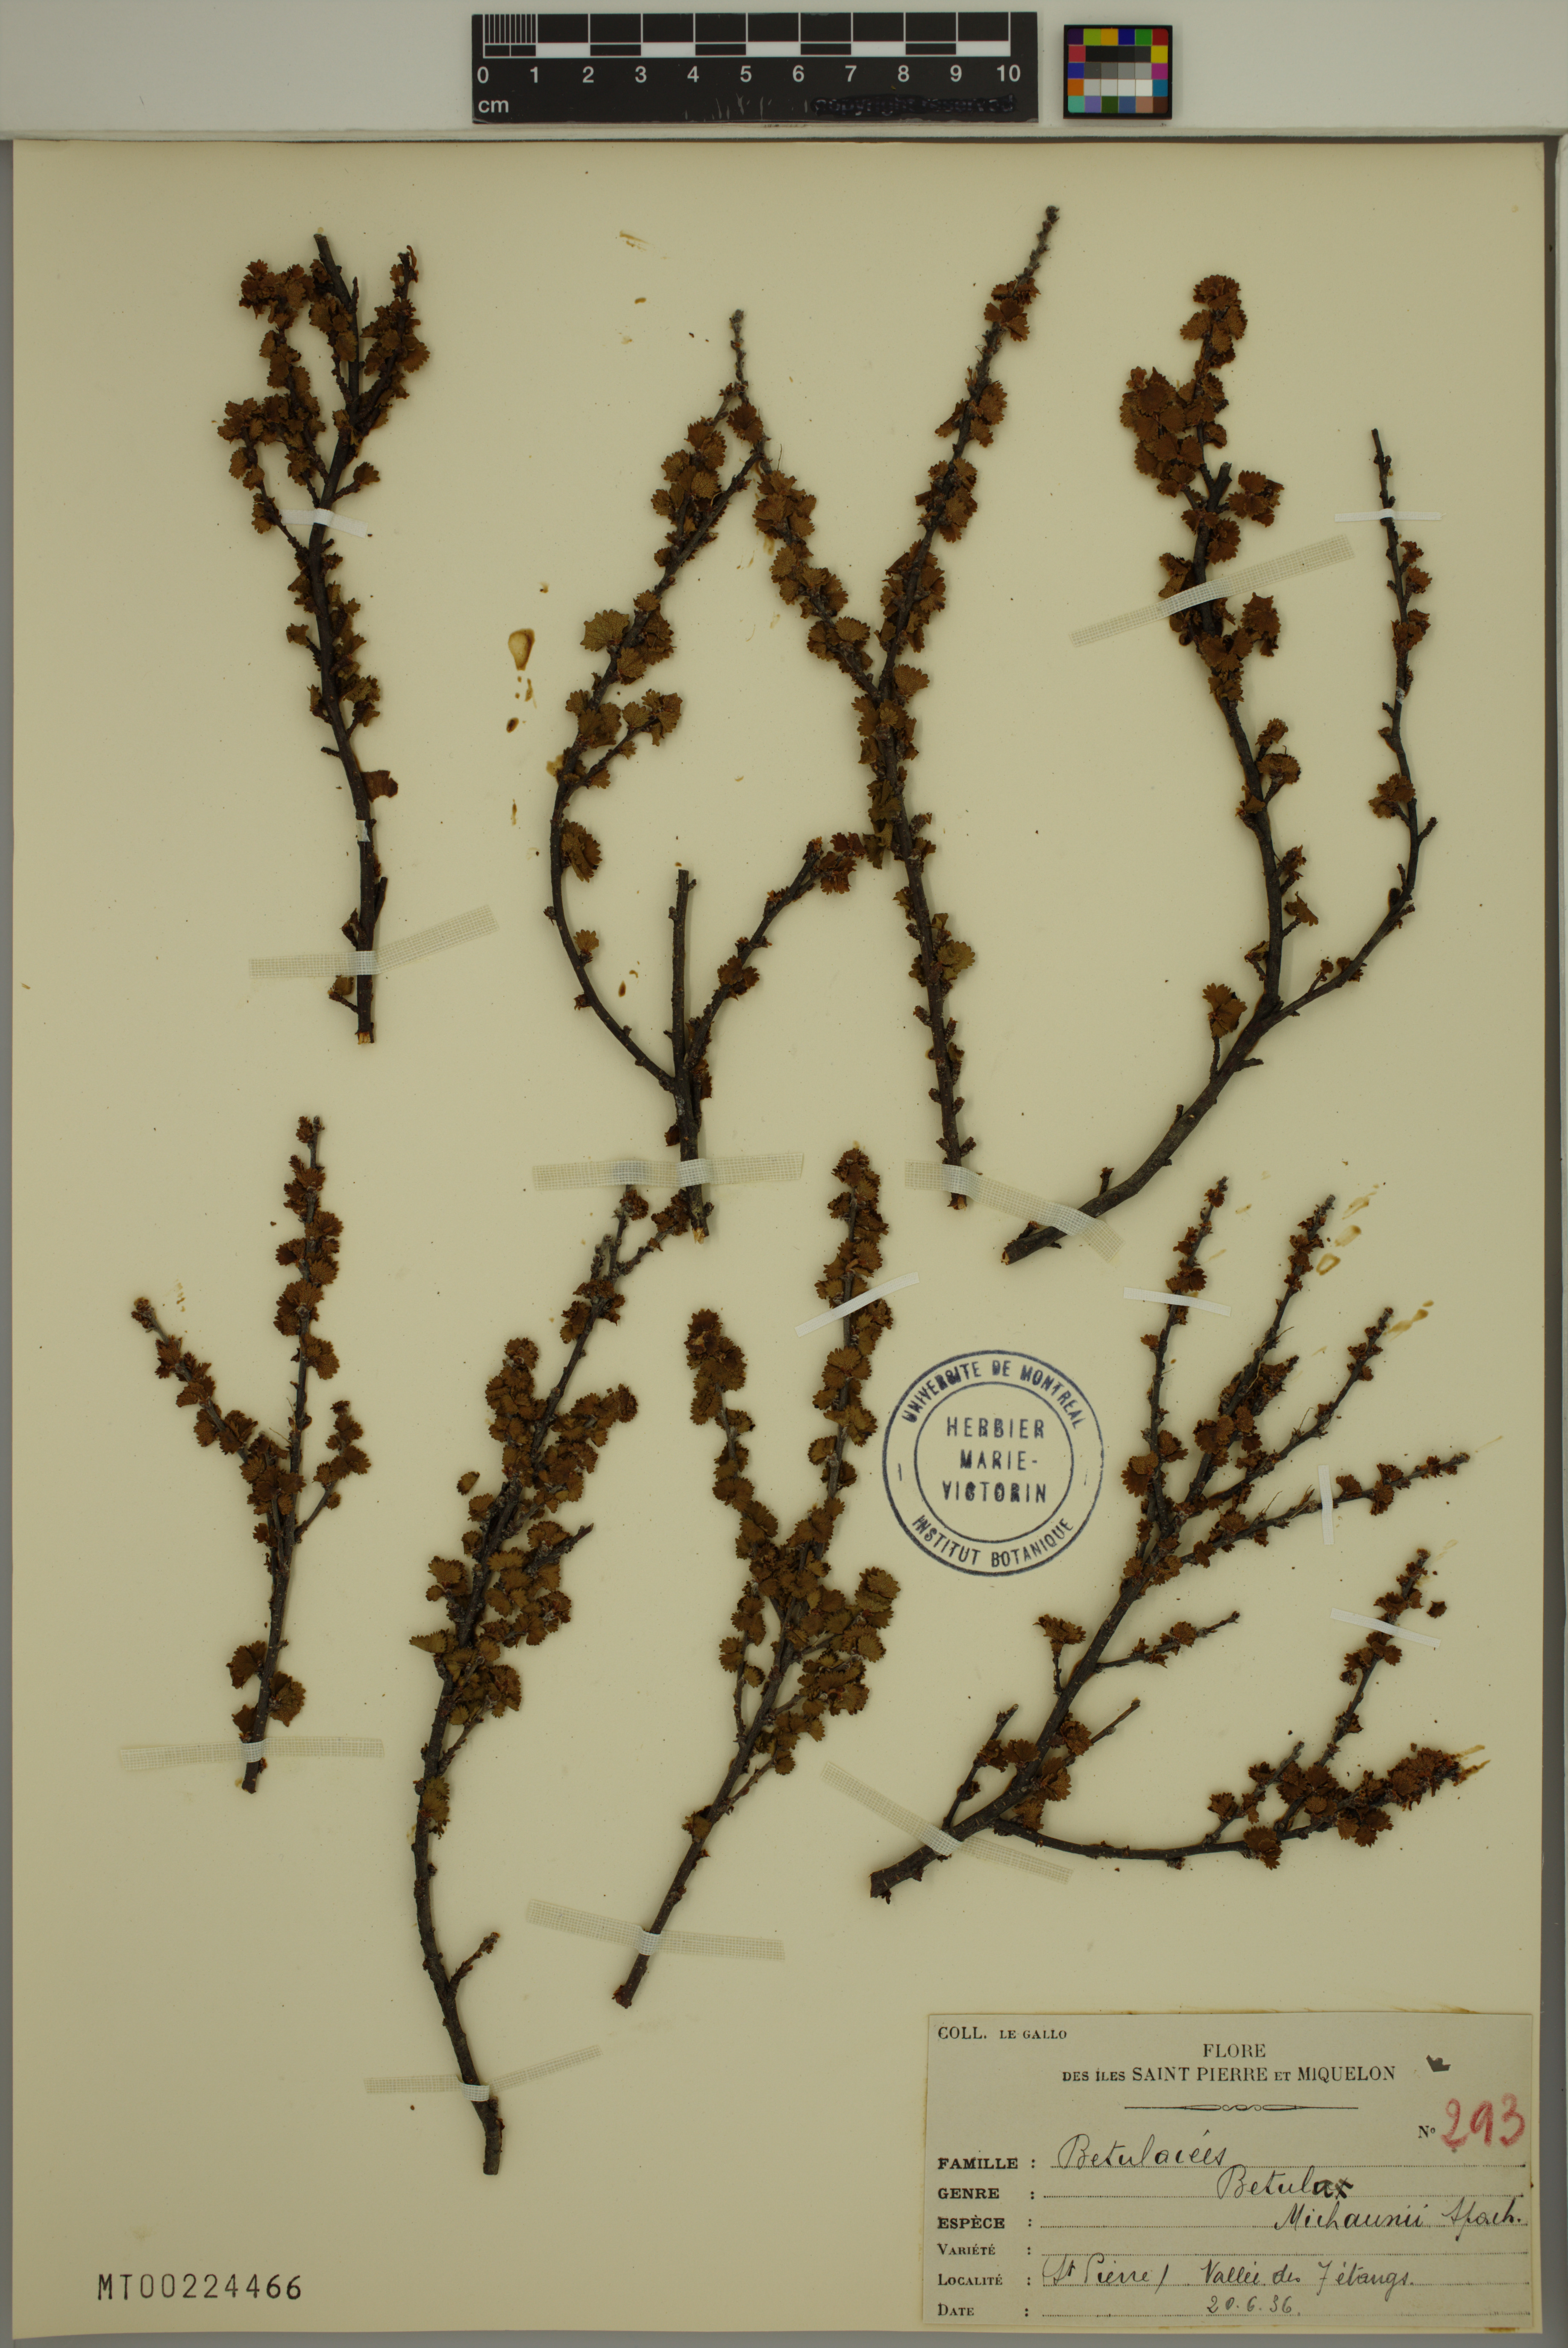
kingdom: Plantae
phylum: Tracheophyta
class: Magnoliopsida
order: Fagales
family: Betulaceae
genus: Betula
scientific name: Betula michauxii
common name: Newfoundland dwarf birch
